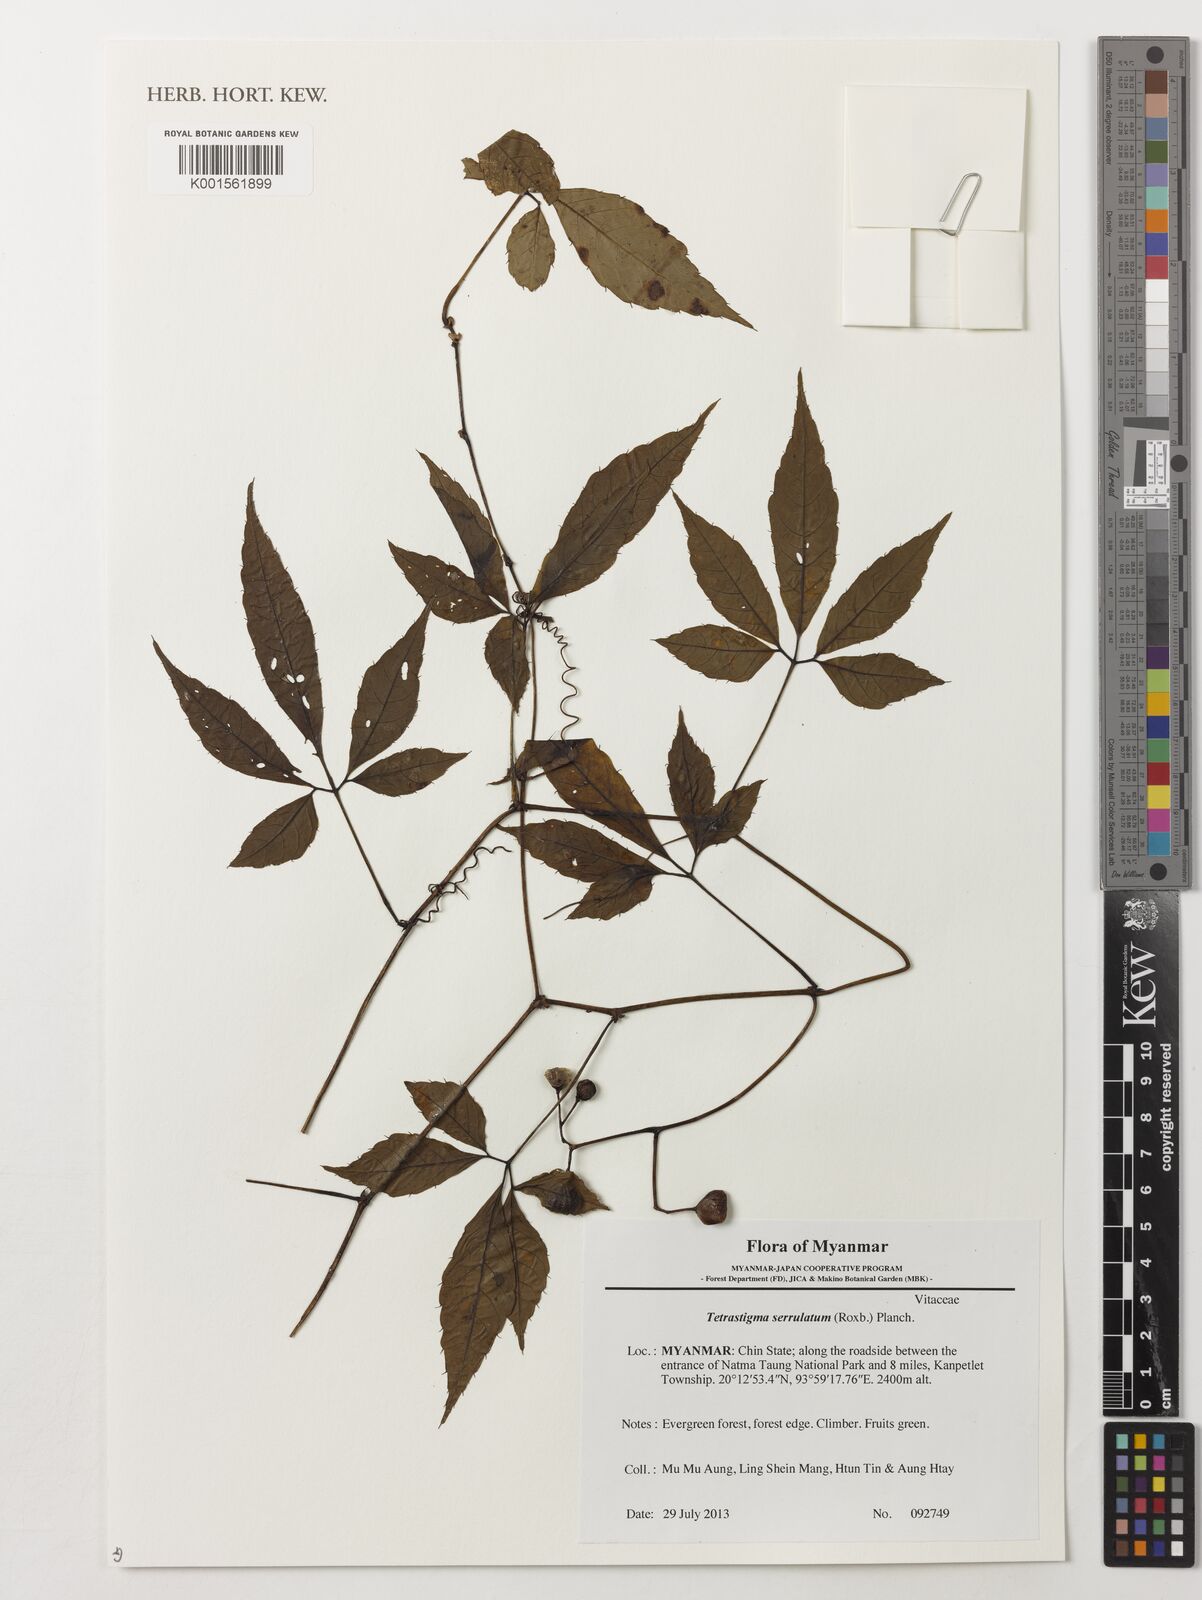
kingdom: Plantae
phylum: Tracheophyta
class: Magnoliopsida
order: Vitales
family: Vitaceae
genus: Tetrastigma
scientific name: Tetrastigma serrulatum
